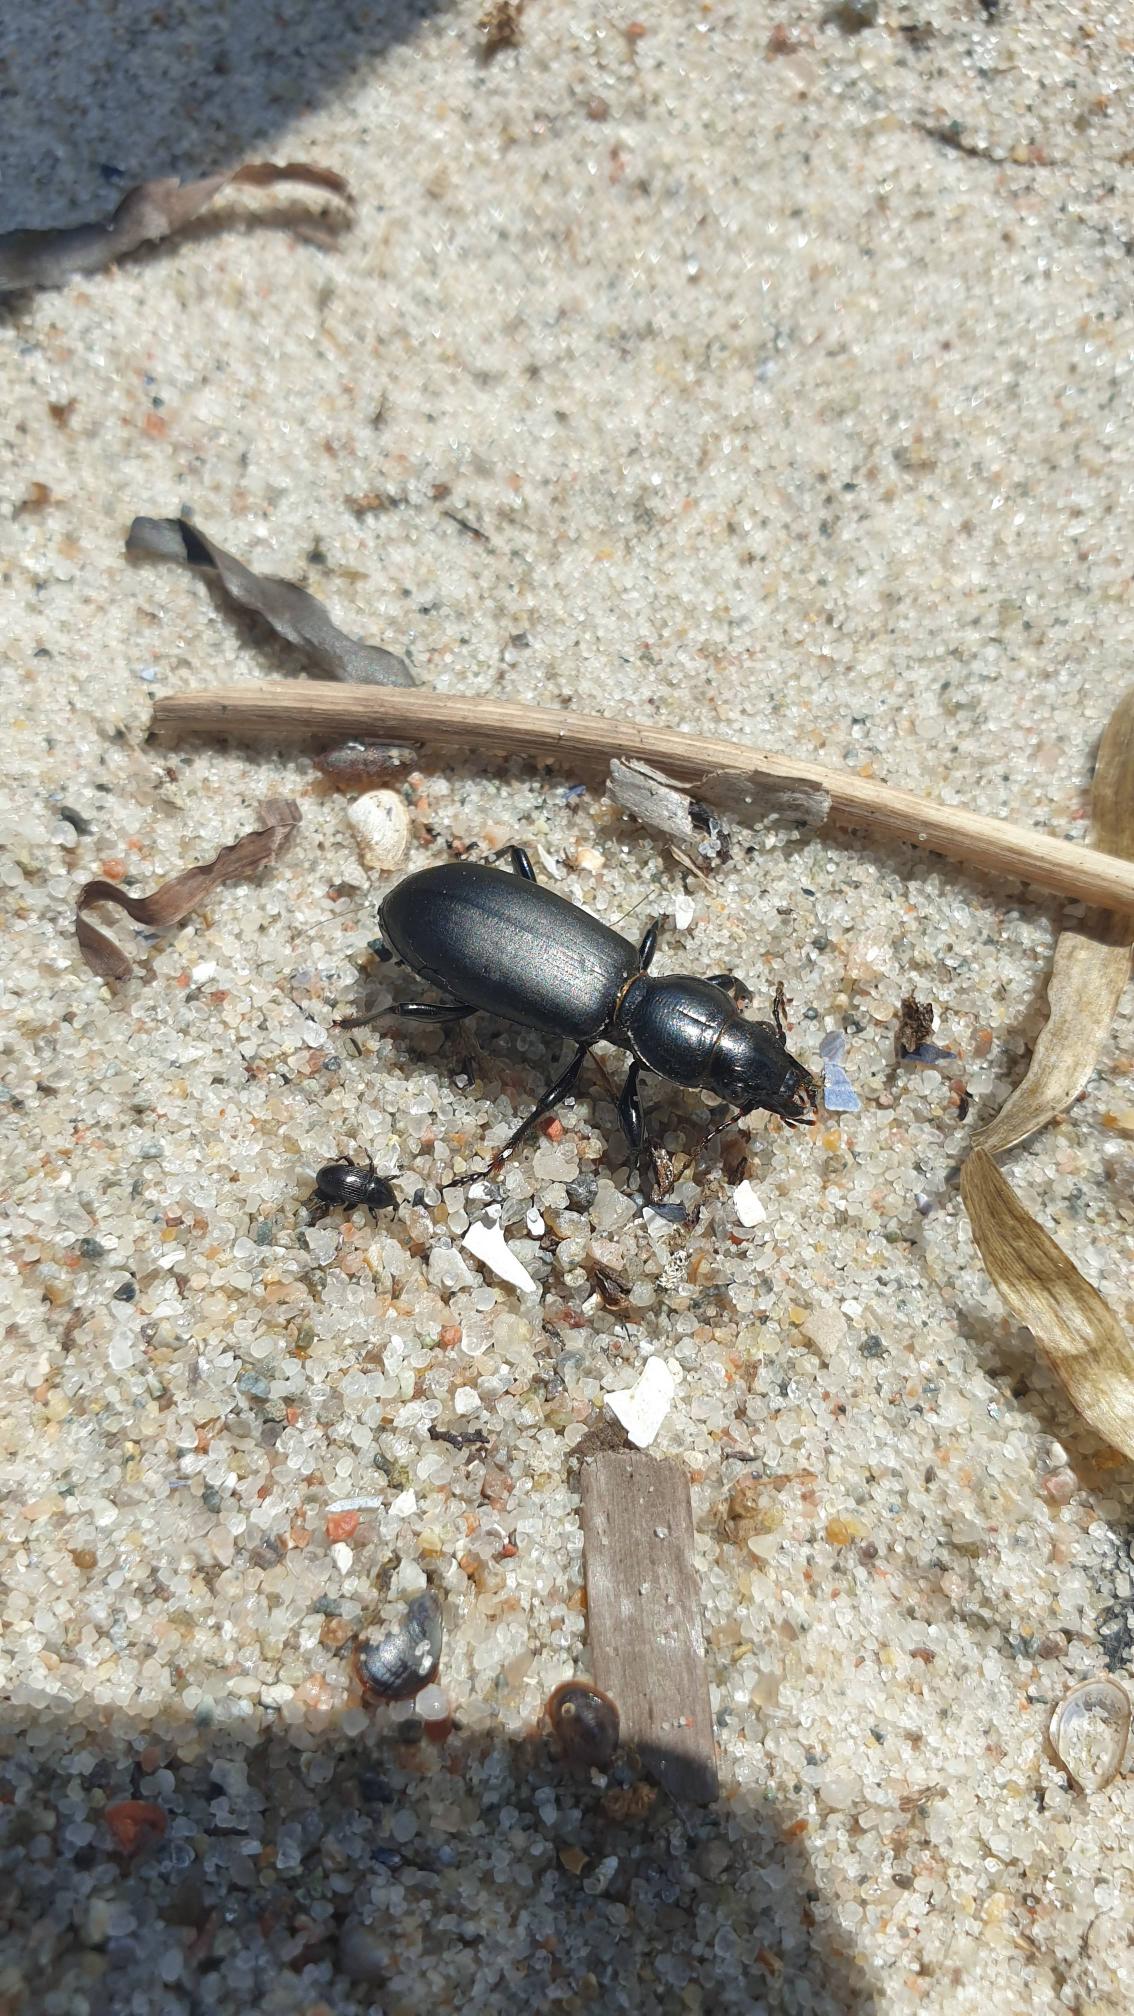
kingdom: Animalia
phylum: Arthropoda
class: Insecta
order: Coleoptera
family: Carabidae
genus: Broscus
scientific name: Broscus cephalotes
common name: Sandgraver
